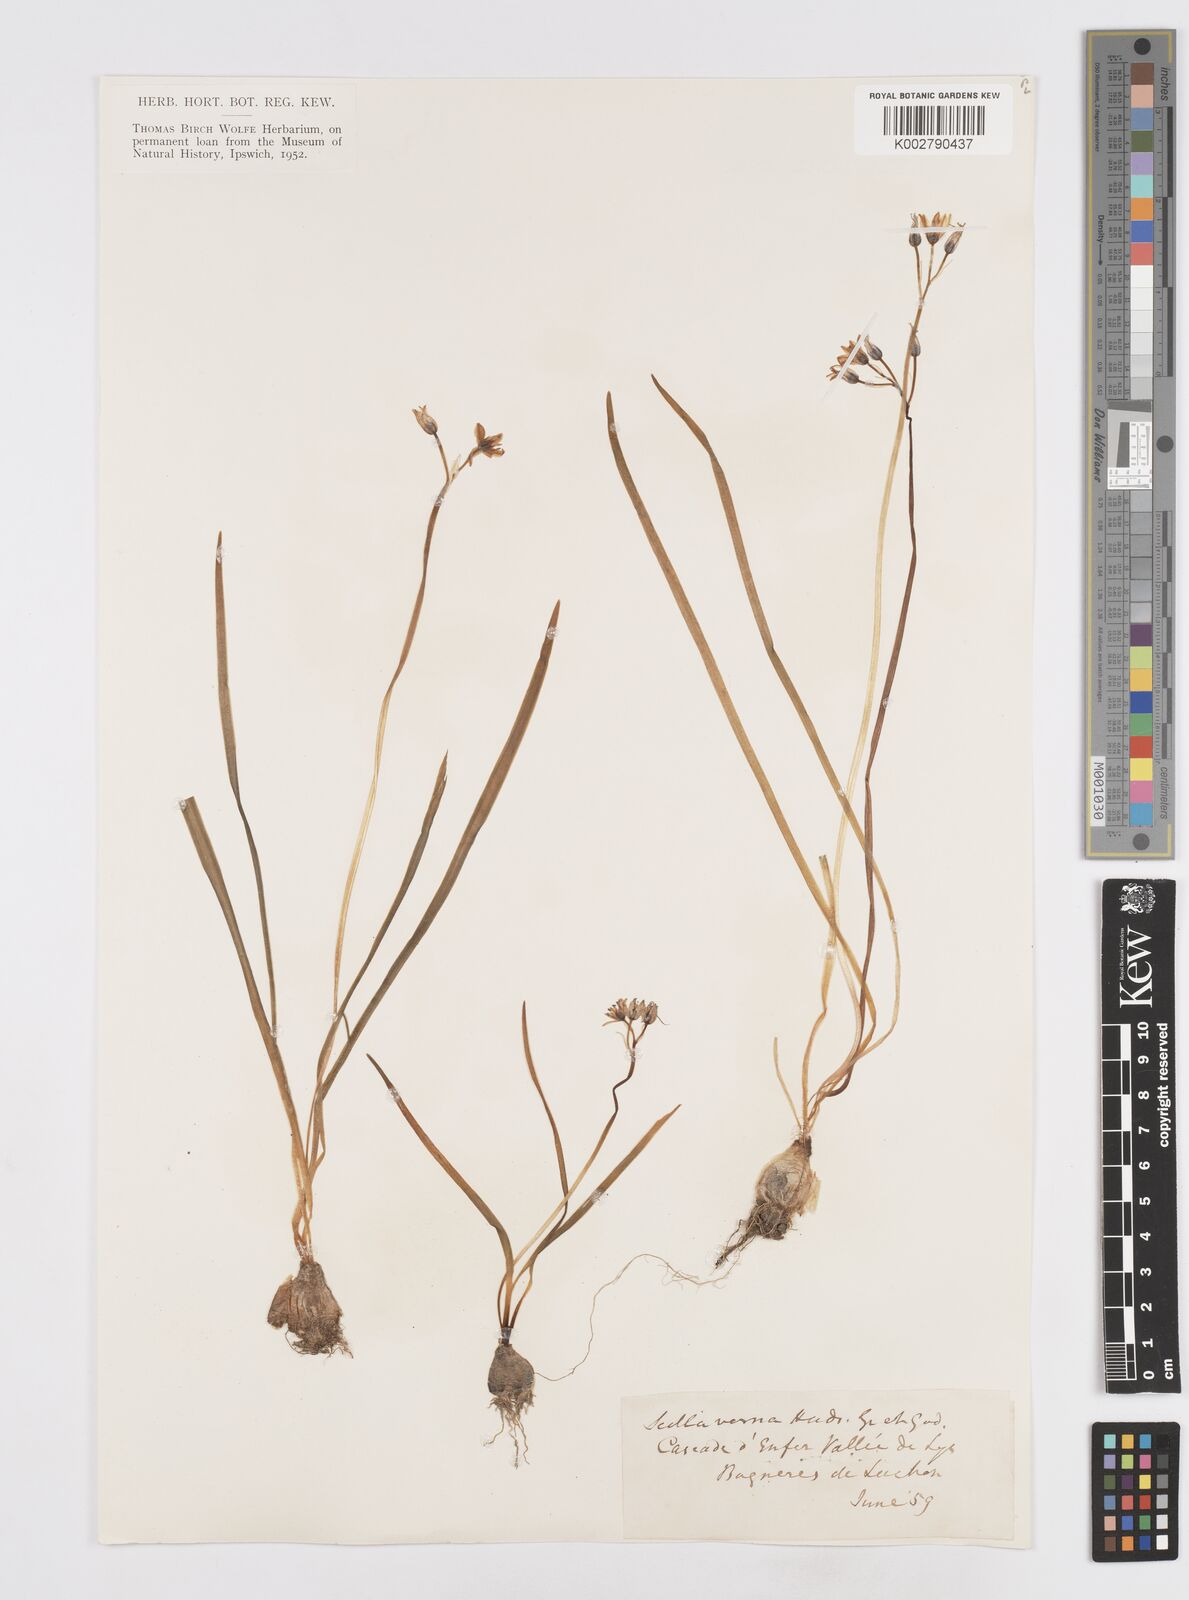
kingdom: Plantae
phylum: Tracheophyta
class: Liliopsida
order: Asparagales
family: Asparagaceae
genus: Scilla
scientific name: Scilla verna
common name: Spring squill
